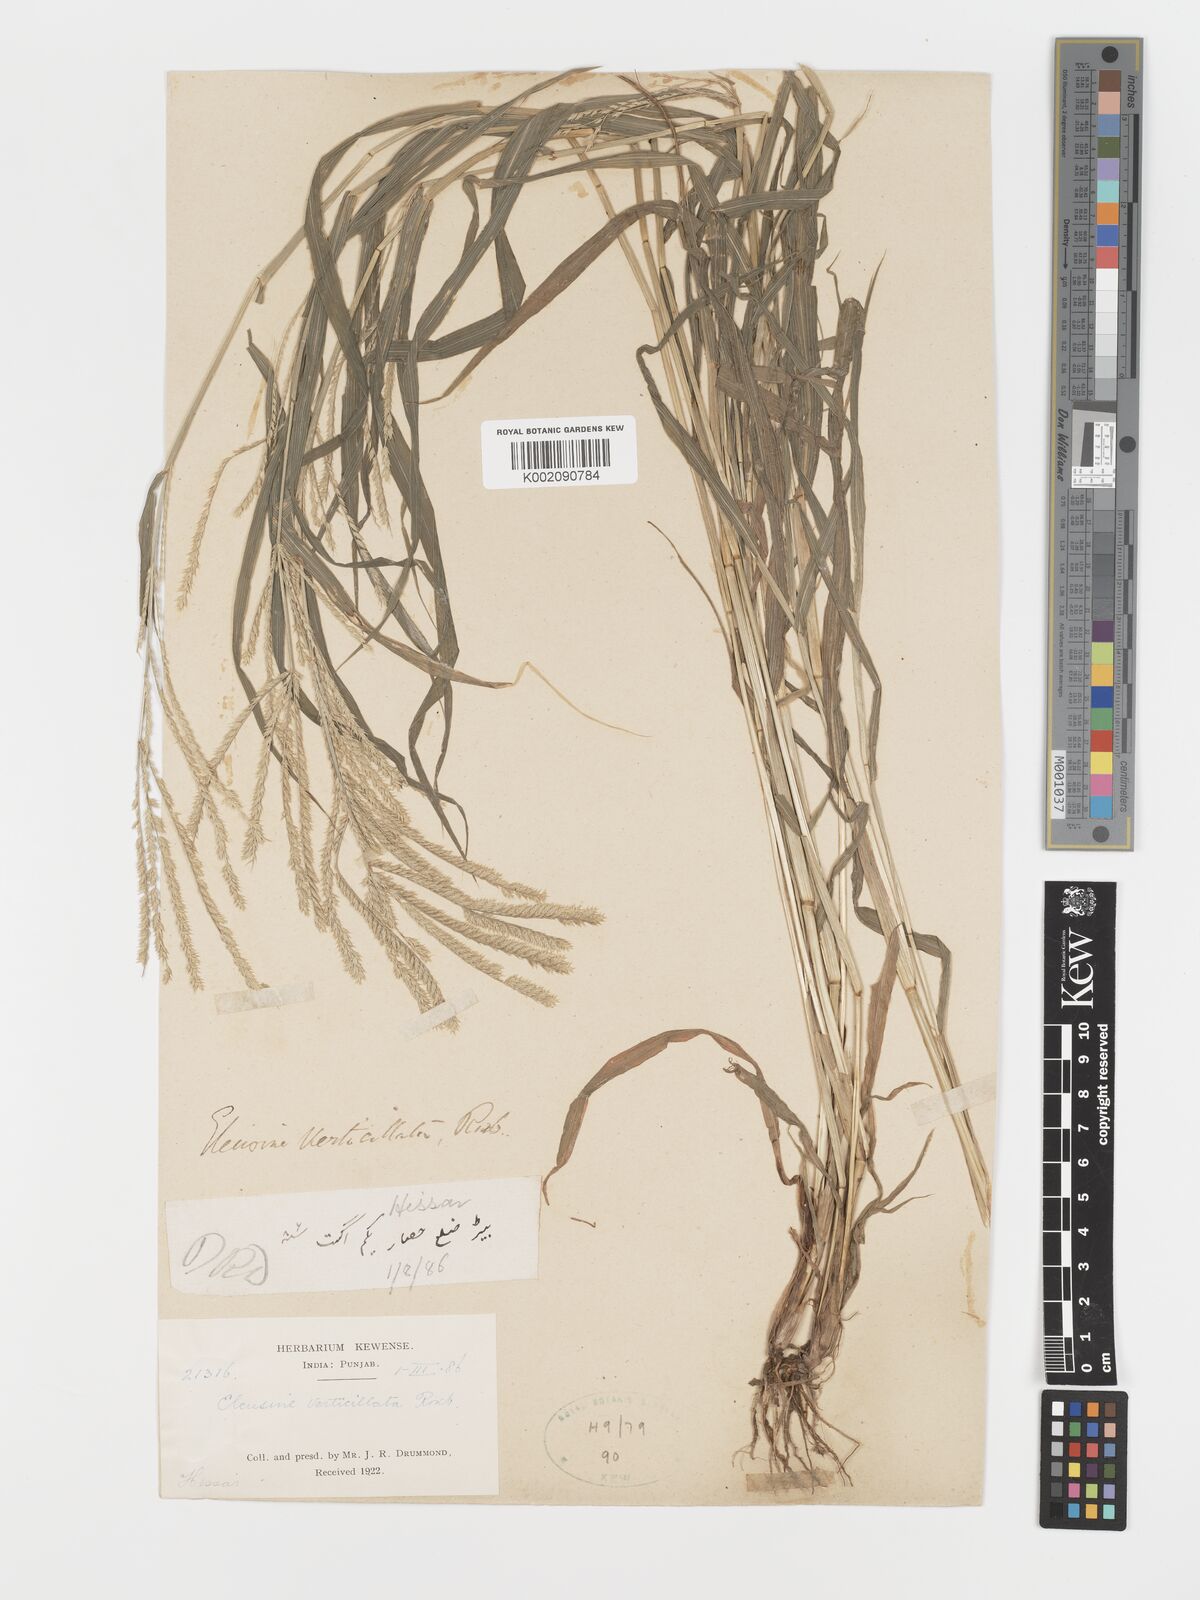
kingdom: Plantae
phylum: Tracheophyta
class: Liliopsida
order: Poales
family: Poaceae
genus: Acrachne
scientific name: Acrachne racemosa
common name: Goosegrass
